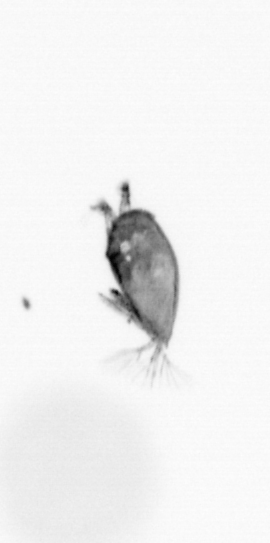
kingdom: Animalia
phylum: Arthropoda
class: Maxillopoda
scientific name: Maxillopoda
